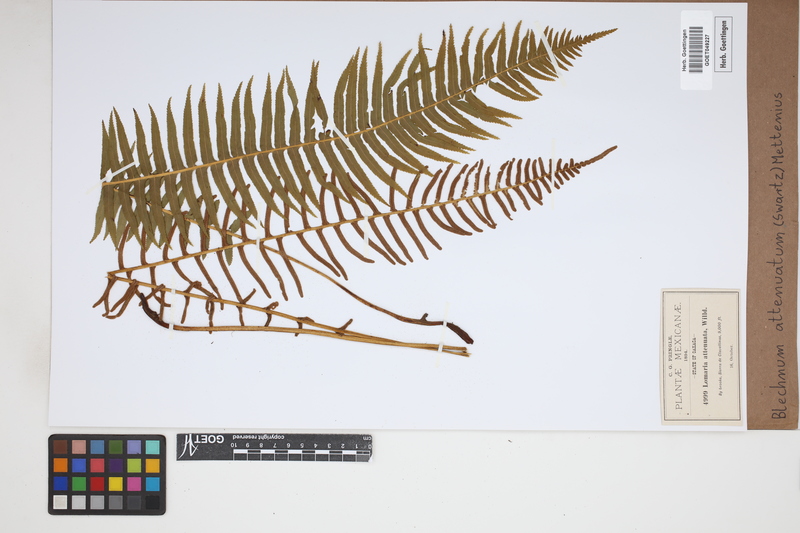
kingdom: Plantae
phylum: Tracheophyta
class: Polypodiopsida
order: Polypodiales
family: Blechnaceae
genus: Lomaridium
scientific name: Lomaridium attenuatum
